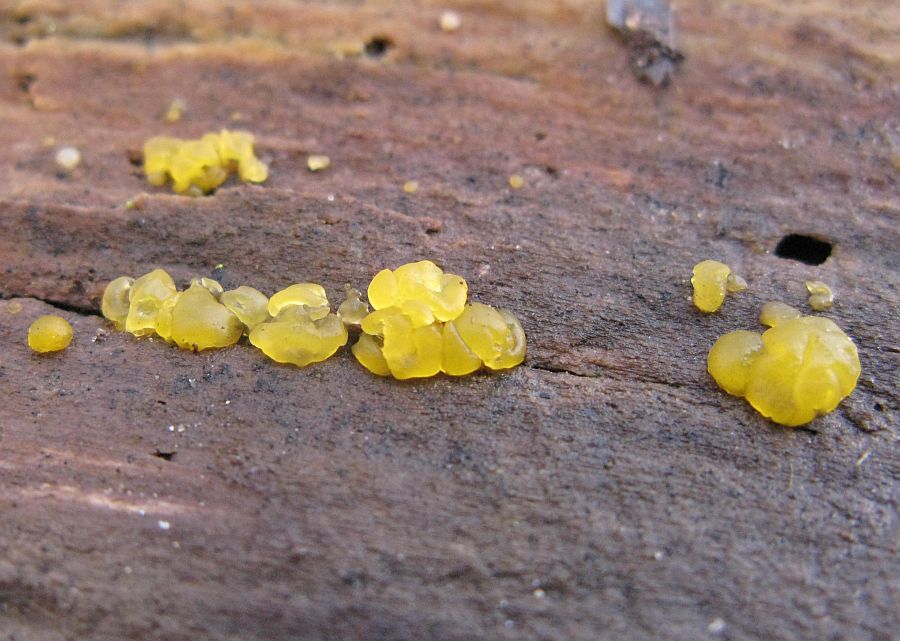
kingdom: Fungi
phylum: Basidiomycota
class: Dacrymycetes
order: Dacrymycetales
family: Dacrymycetaceae
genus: Dacrymyces
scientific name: Dacrymyces lacrymalis
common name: rynket tåresvamp
